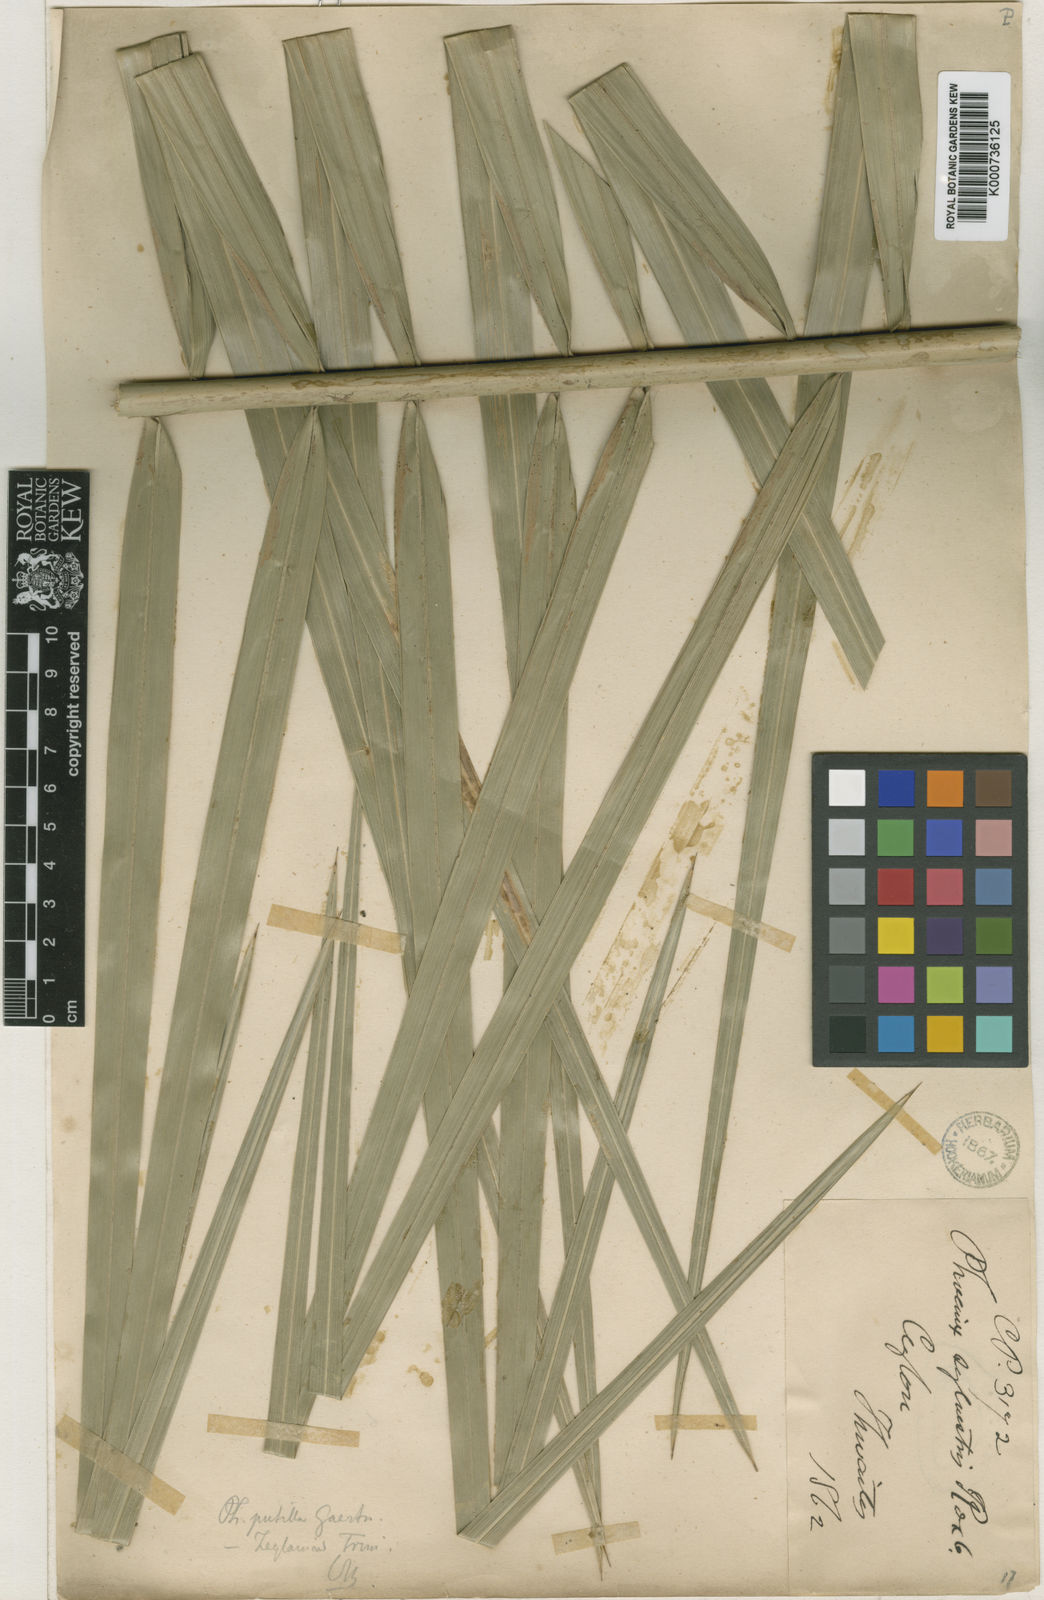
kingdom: Plantae
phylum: Tracheophyta
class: Liliopsida
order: Arecales
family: Arecaceae
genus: Phoenix
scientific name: Phoenix pusilla
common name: Flour palm
